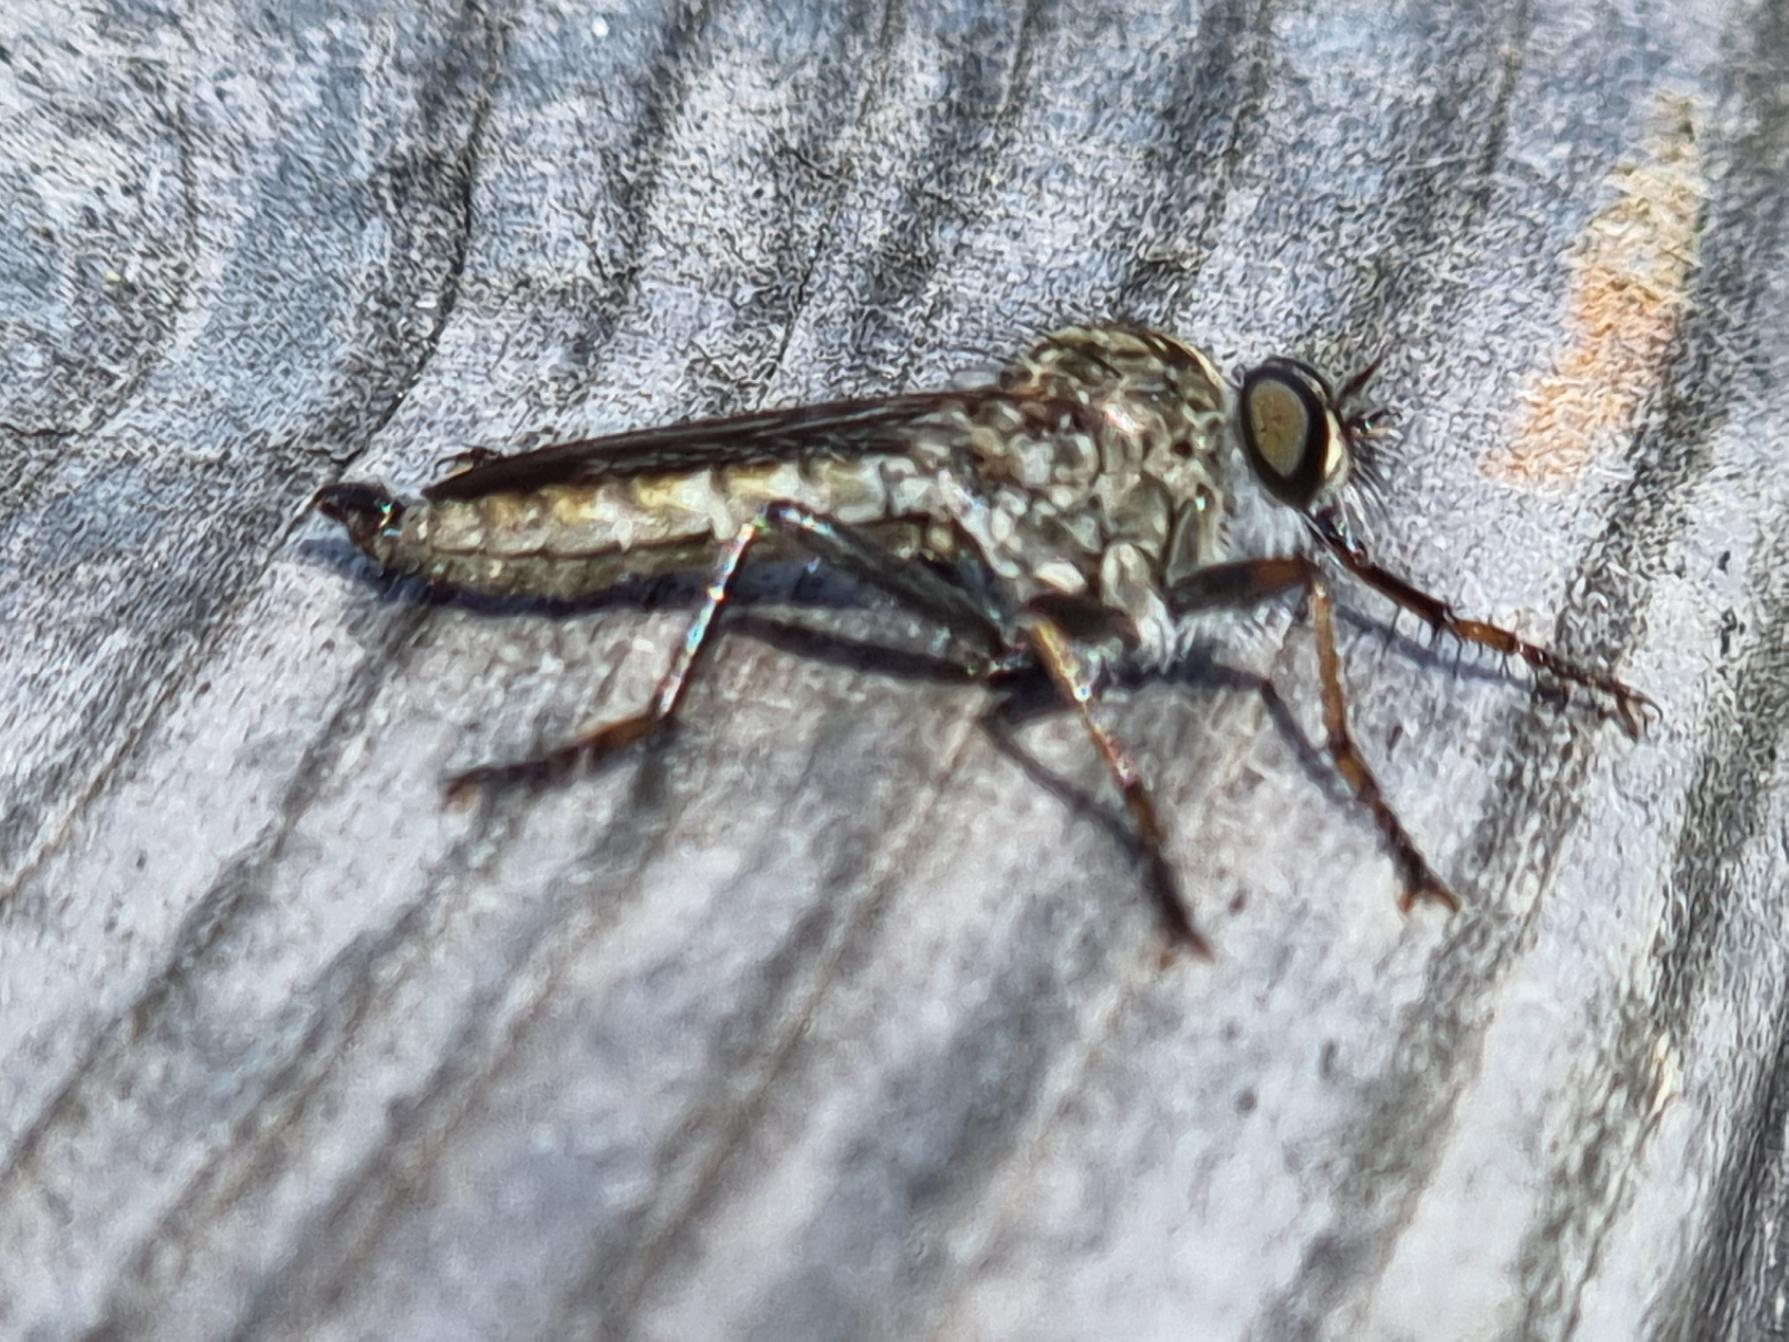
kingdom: Animalia
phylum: Arthropoda
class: Insecta
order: Diptera
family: Asilidae
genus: Machimus
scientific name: Machimus atricapillus
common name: Sort hårrovflue
